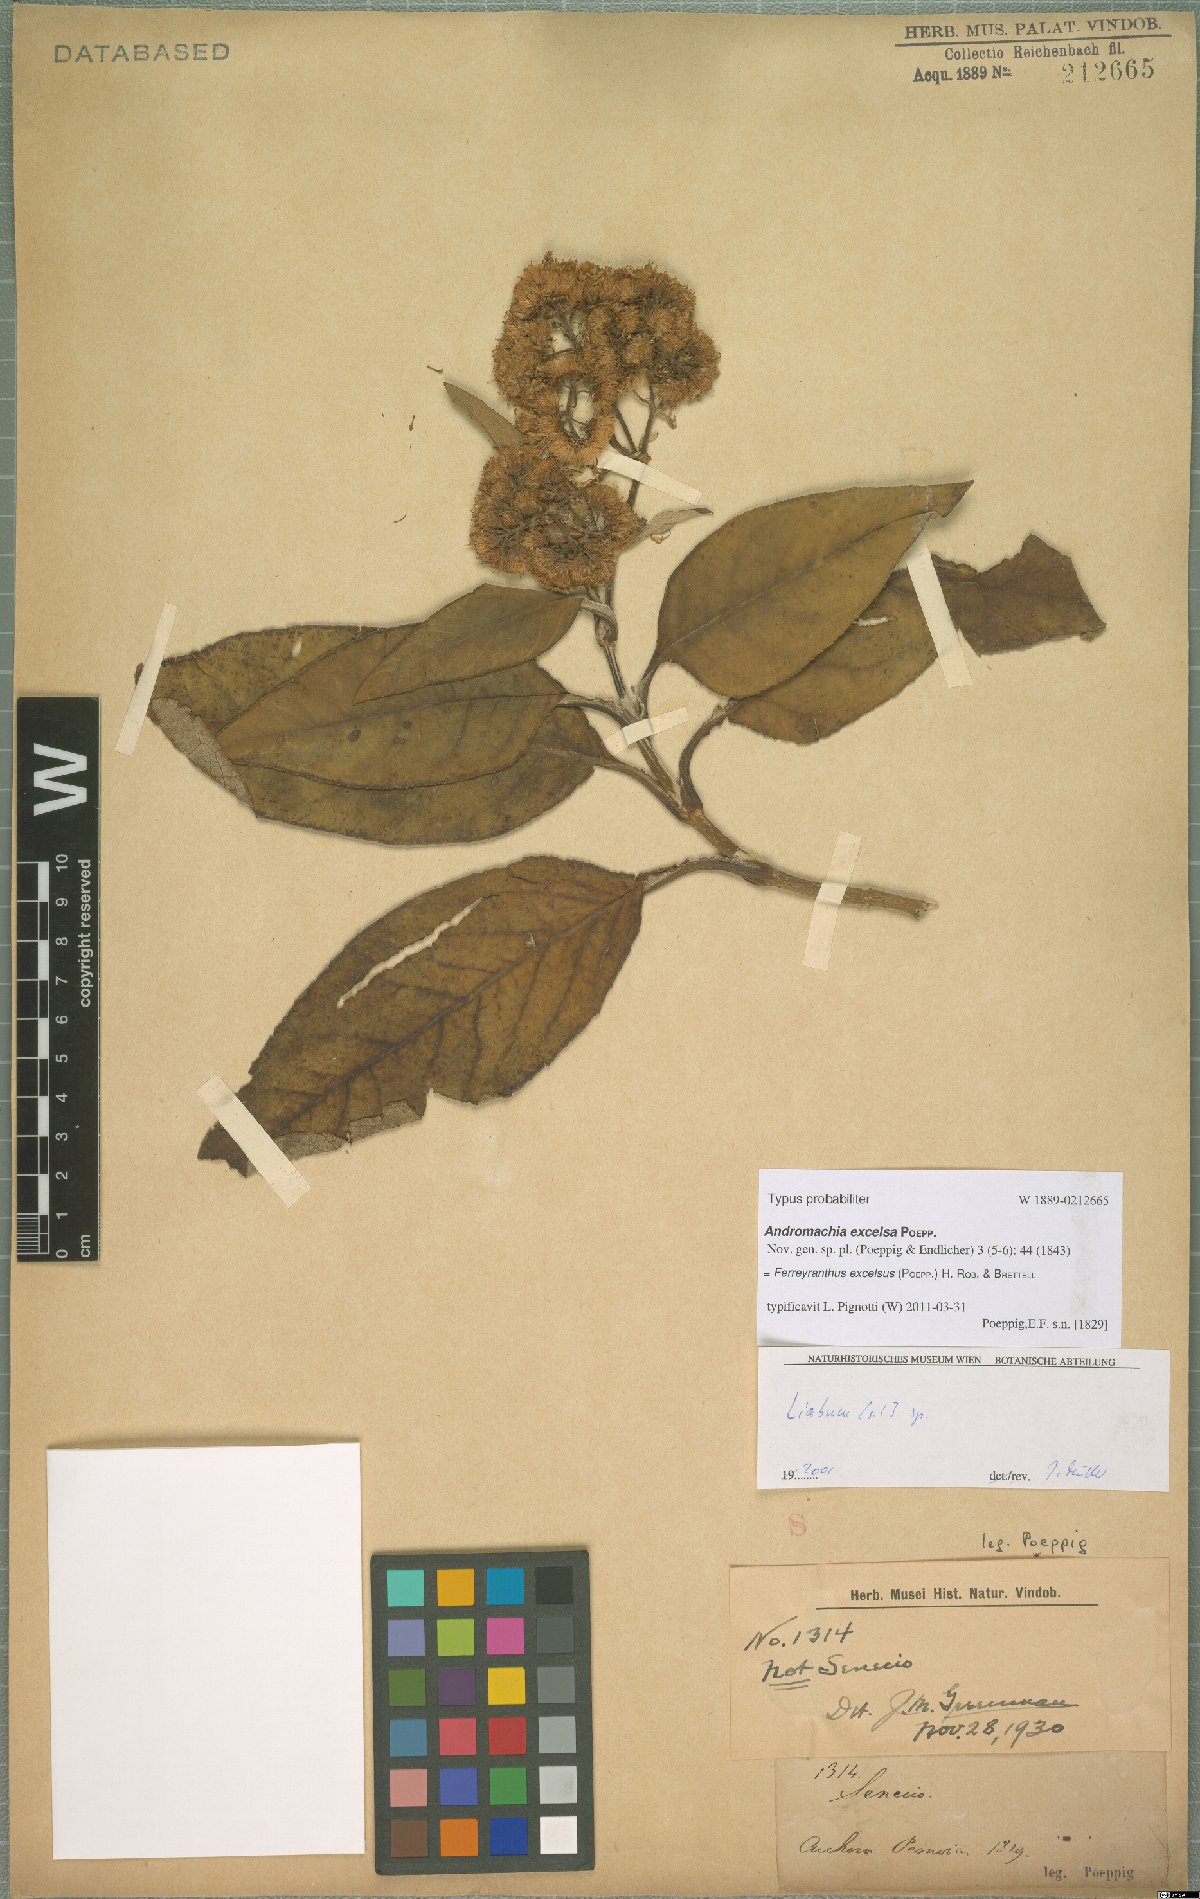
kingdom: Plantae
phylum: Tracheophyta
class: Magnoliopsida
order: Asterales
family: Asteraceae
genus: Ferreyranthus
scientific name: Ferreyranthus excelsus
